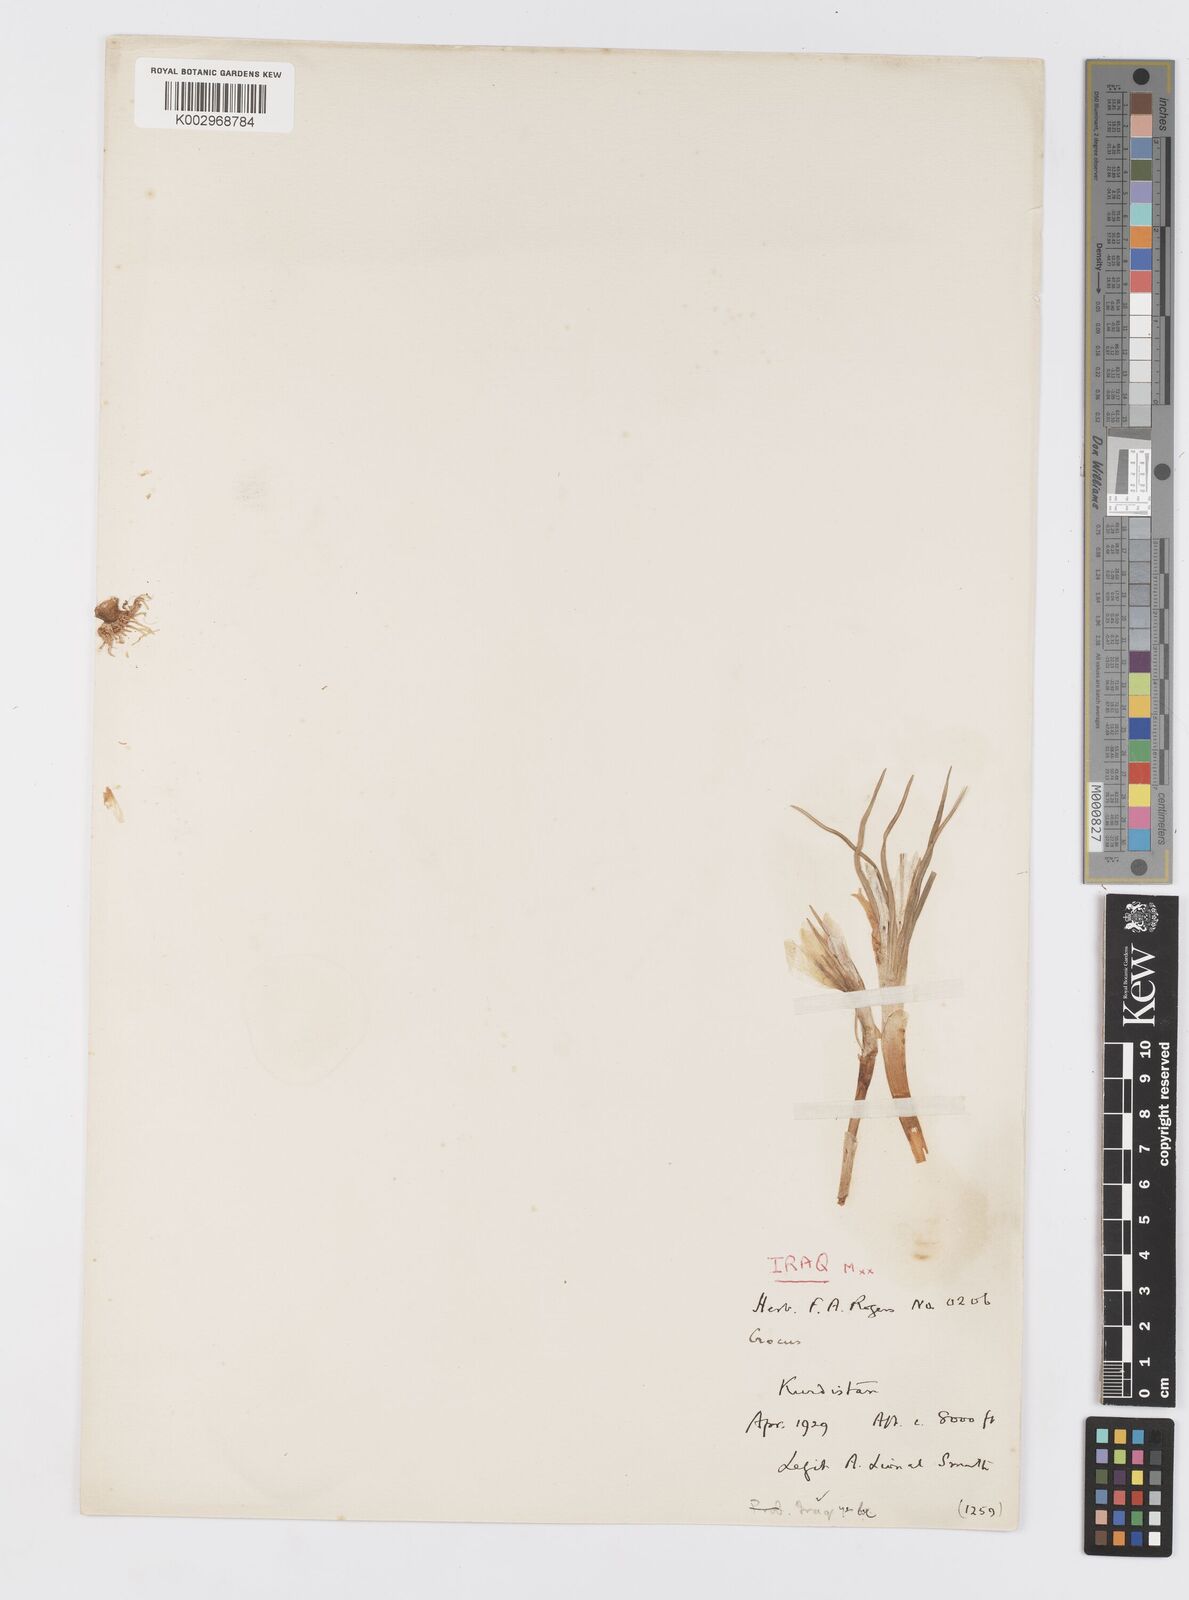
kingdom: Plantae
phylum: Tracheophyta
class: Liliopsida
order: Asparagales
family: Iridaceae
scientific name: Iridaceae
